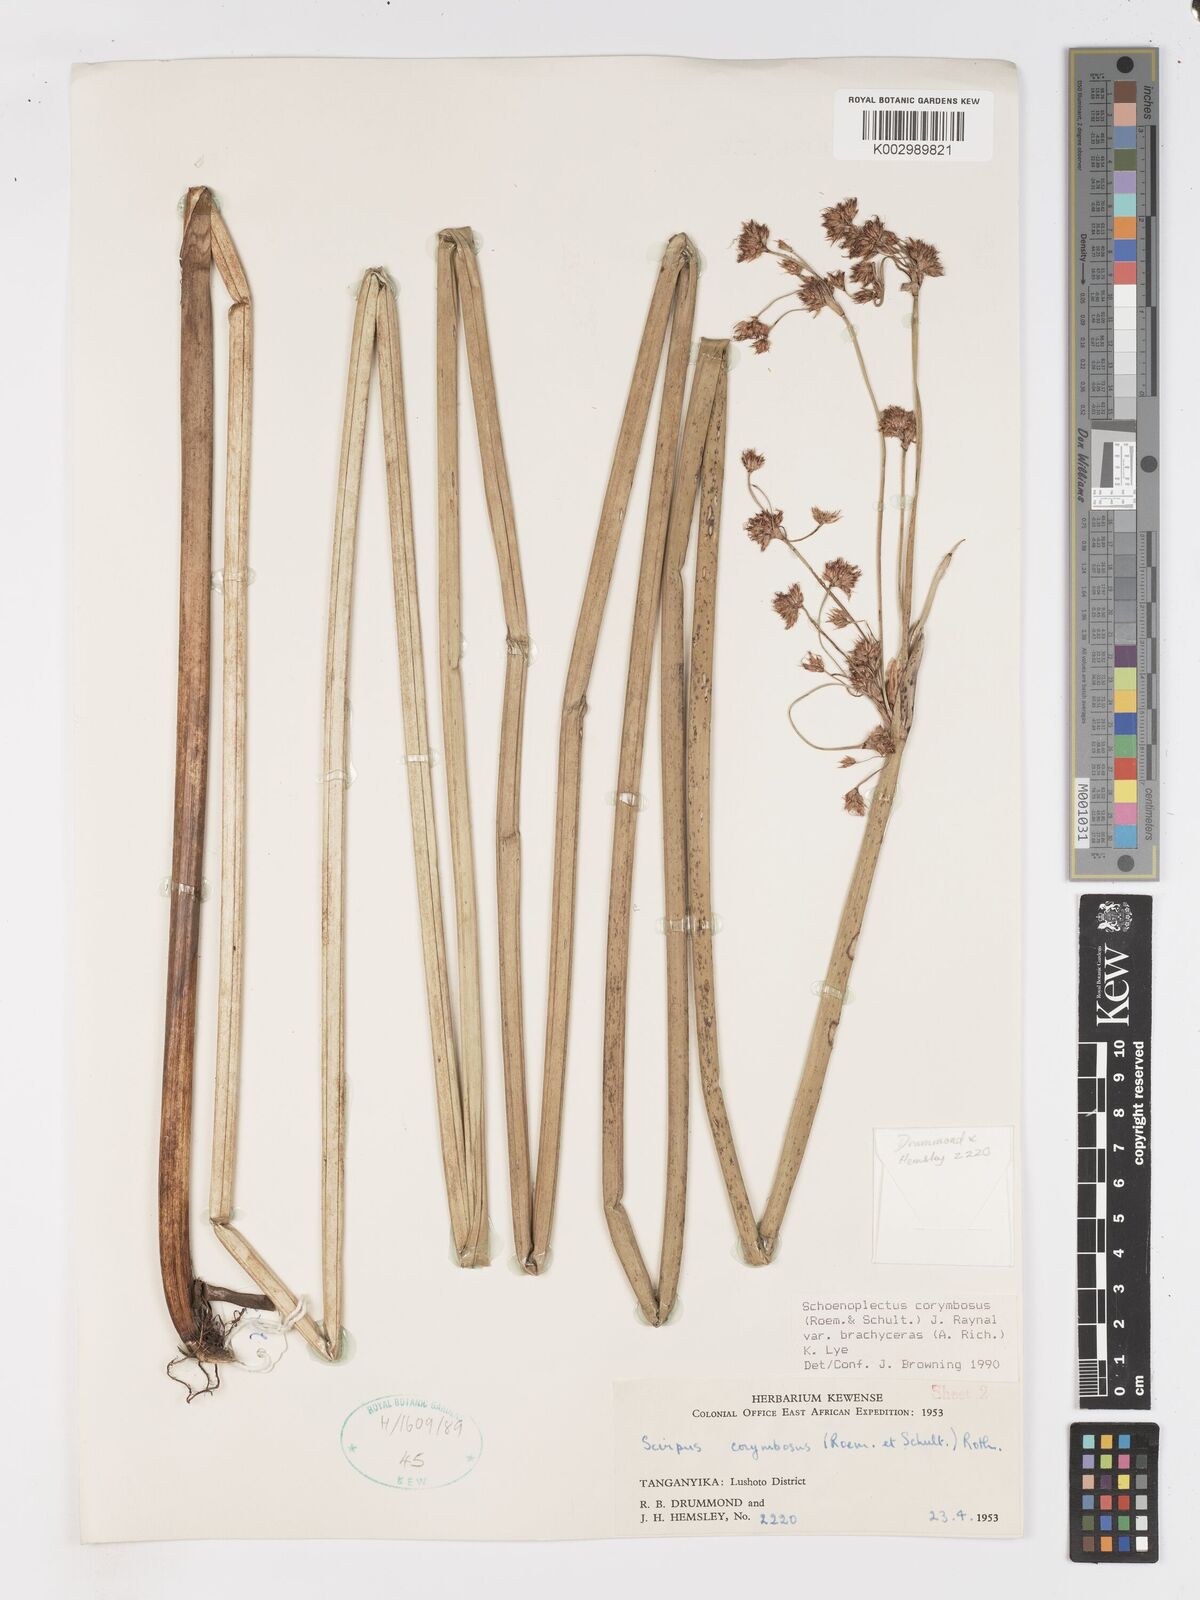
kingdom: Plantae
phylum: Tracheophyta
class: Liliopsida
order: Poales
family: Cyperaceae
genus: Schoenoplectiella
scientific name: Schoenoplectiella brachyceras
